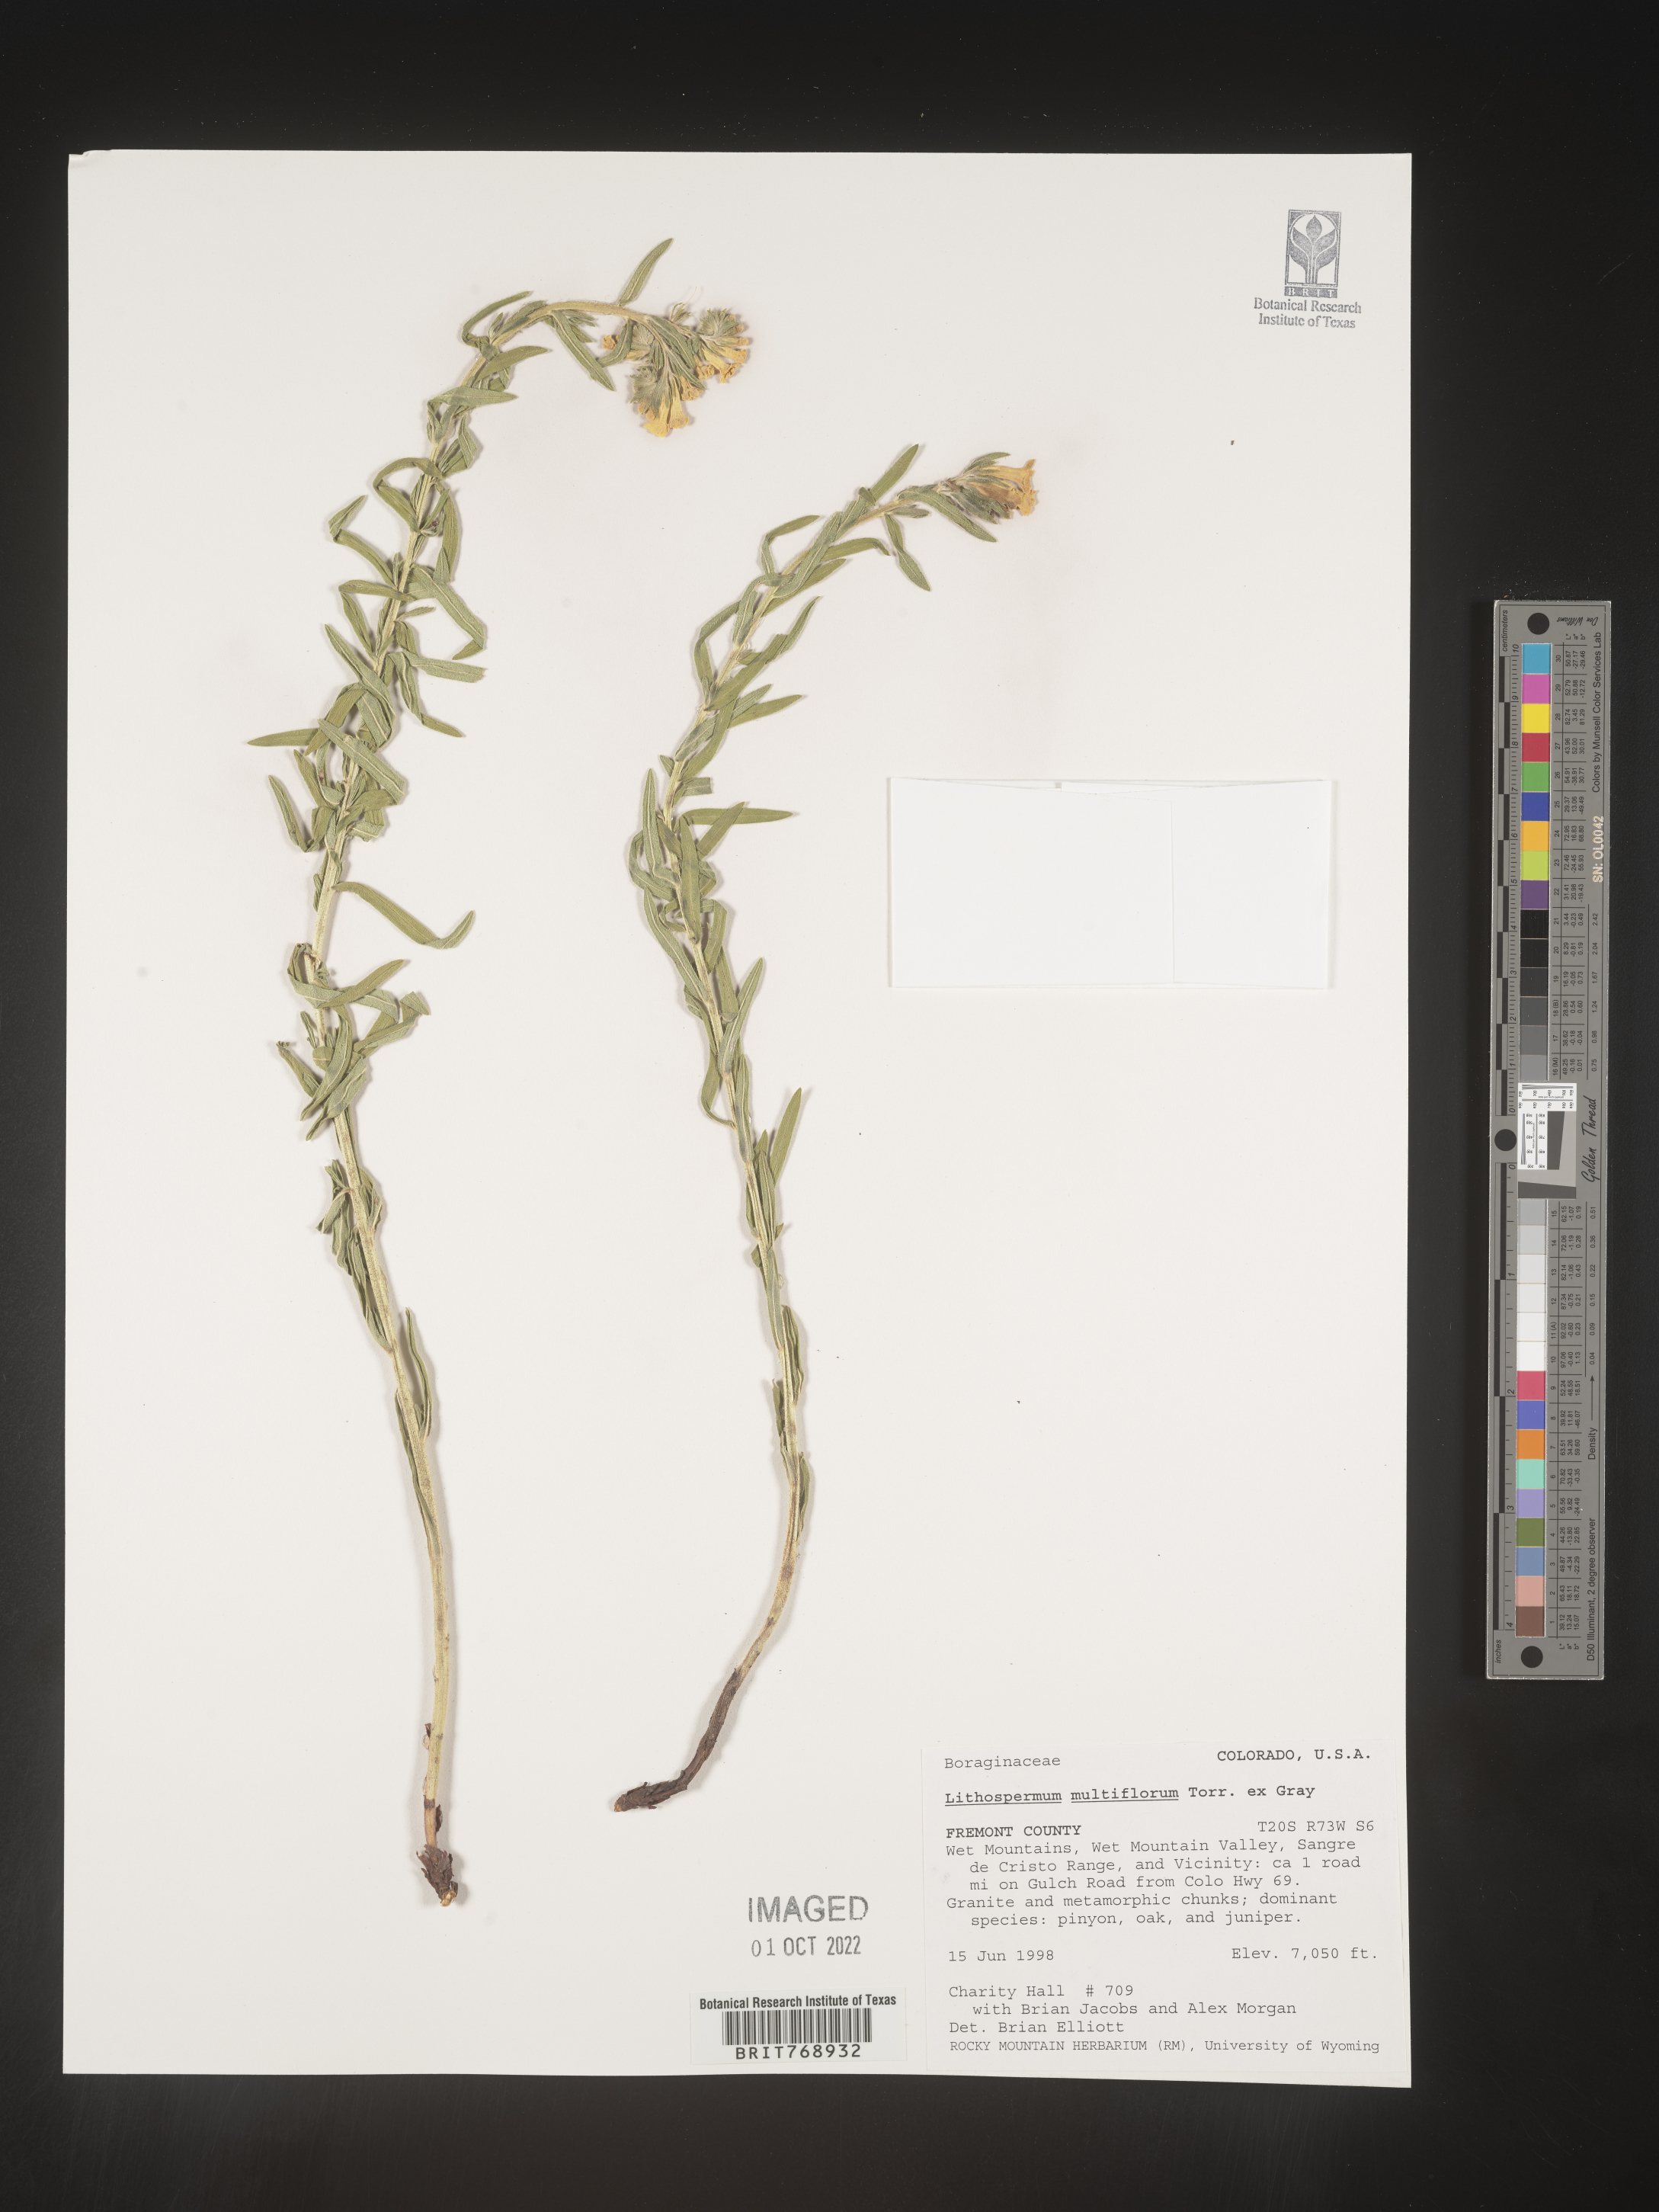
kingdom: Plantae
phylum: Tracheophyta
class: Magnoliopsida
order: Boraginales
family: Boraginaceae
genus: Lithospermum
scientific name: Lithospermum multiflorum
